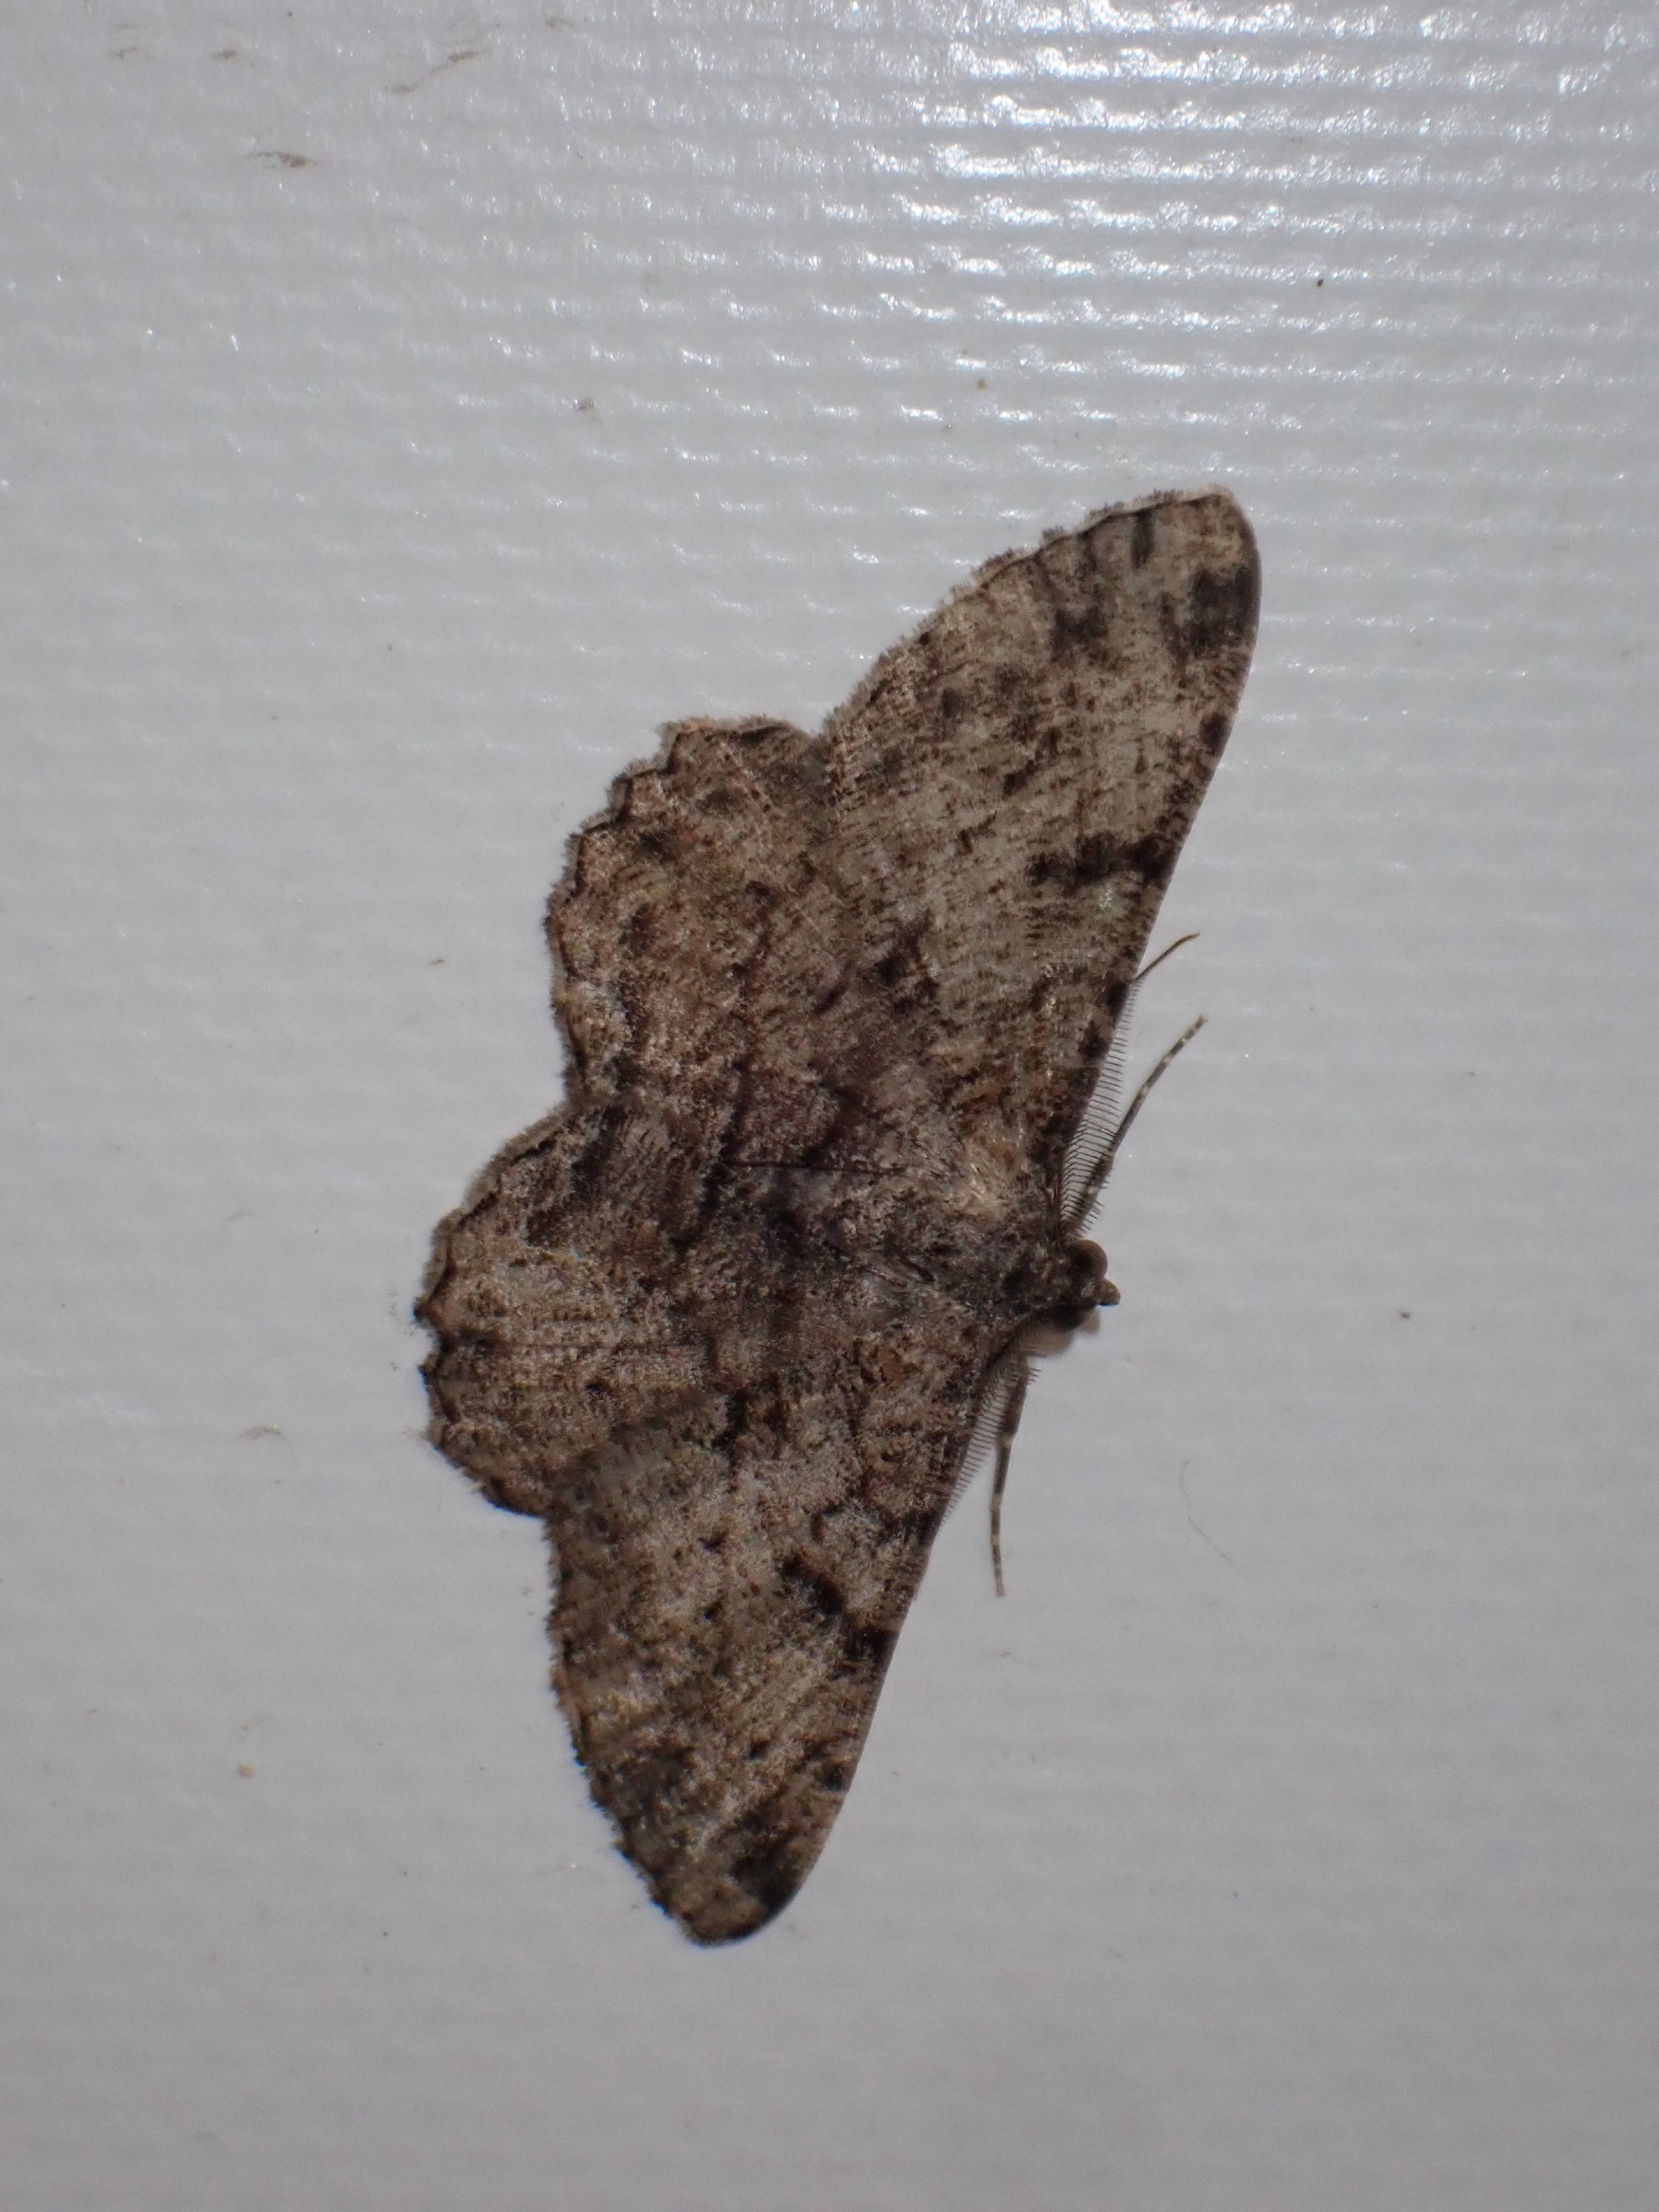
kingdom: Animalia
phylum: Arthropoda
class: Insecta
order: Lepidoptera
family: Geometridae
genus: Peribatodes
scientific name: Peribatodes rhomboidaria
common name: Frugttræ-barkmåler
